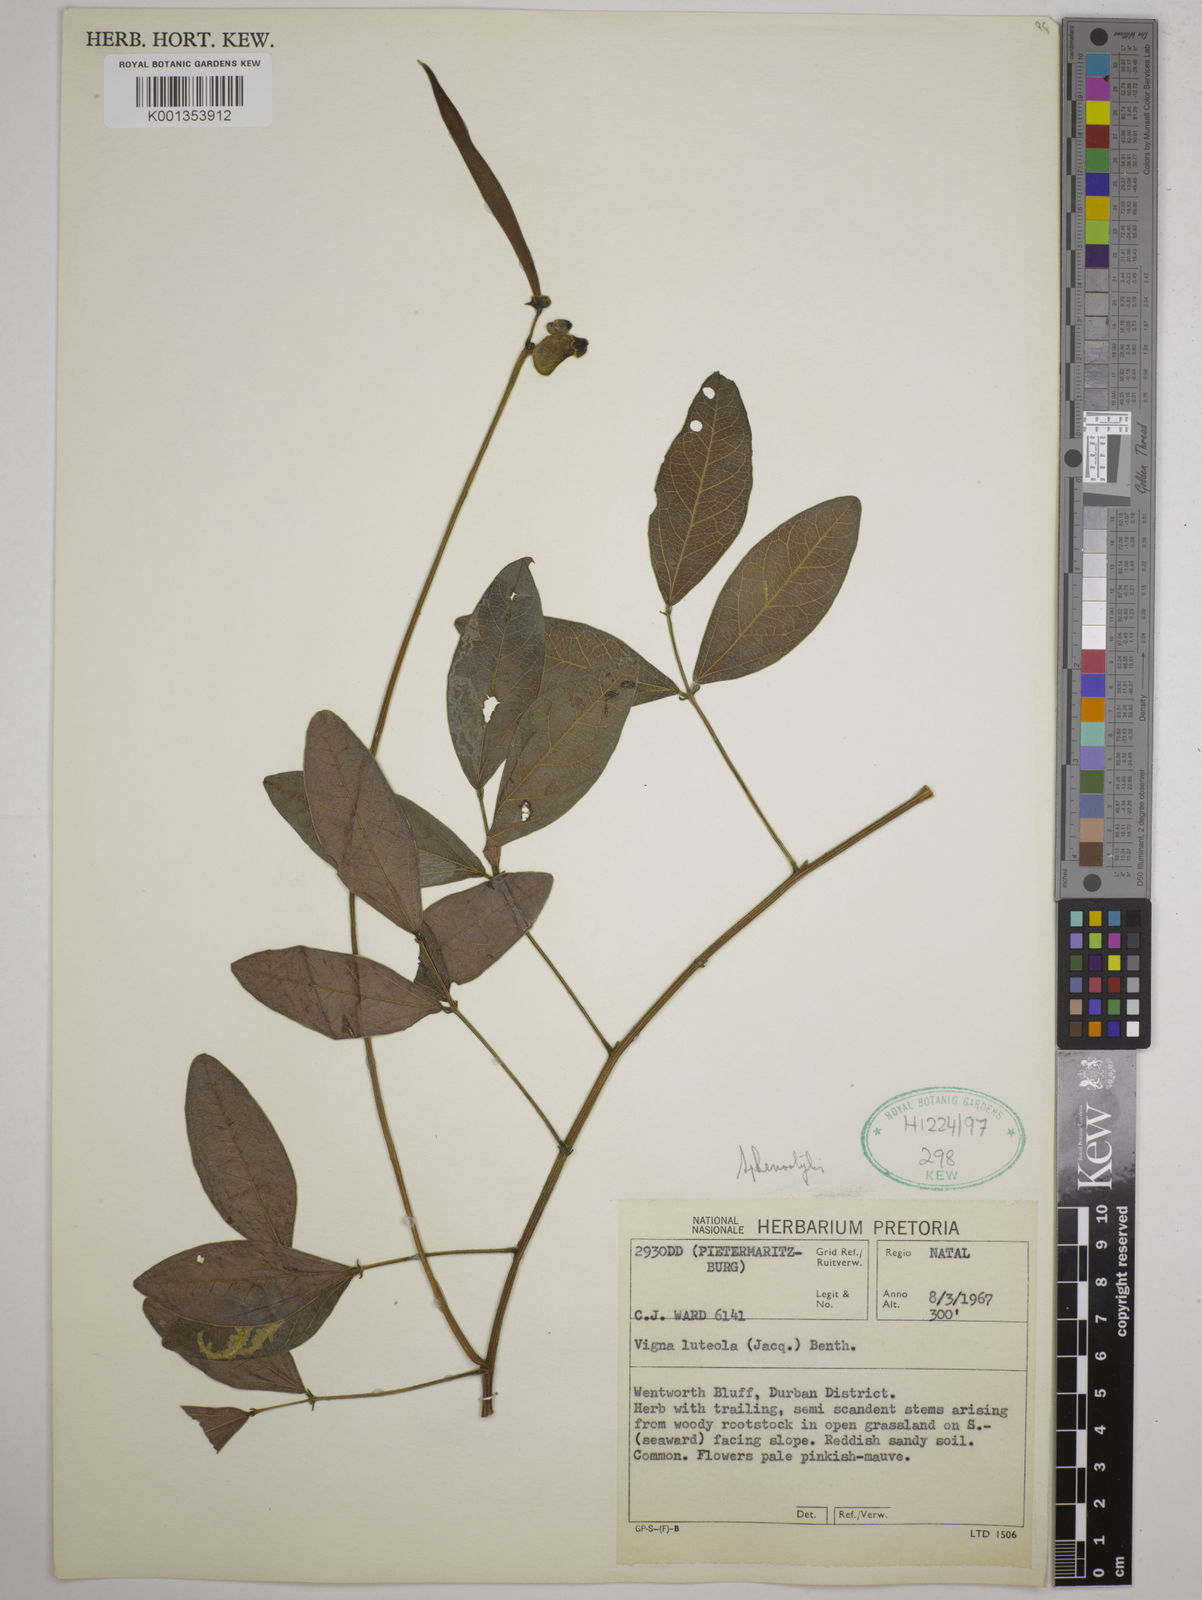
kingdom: Plantae
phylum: Tracheophyta
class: Magnoliopsida
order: Fabales
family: Fabaceae
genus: Sphenostylis
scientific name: Sphenostylis
